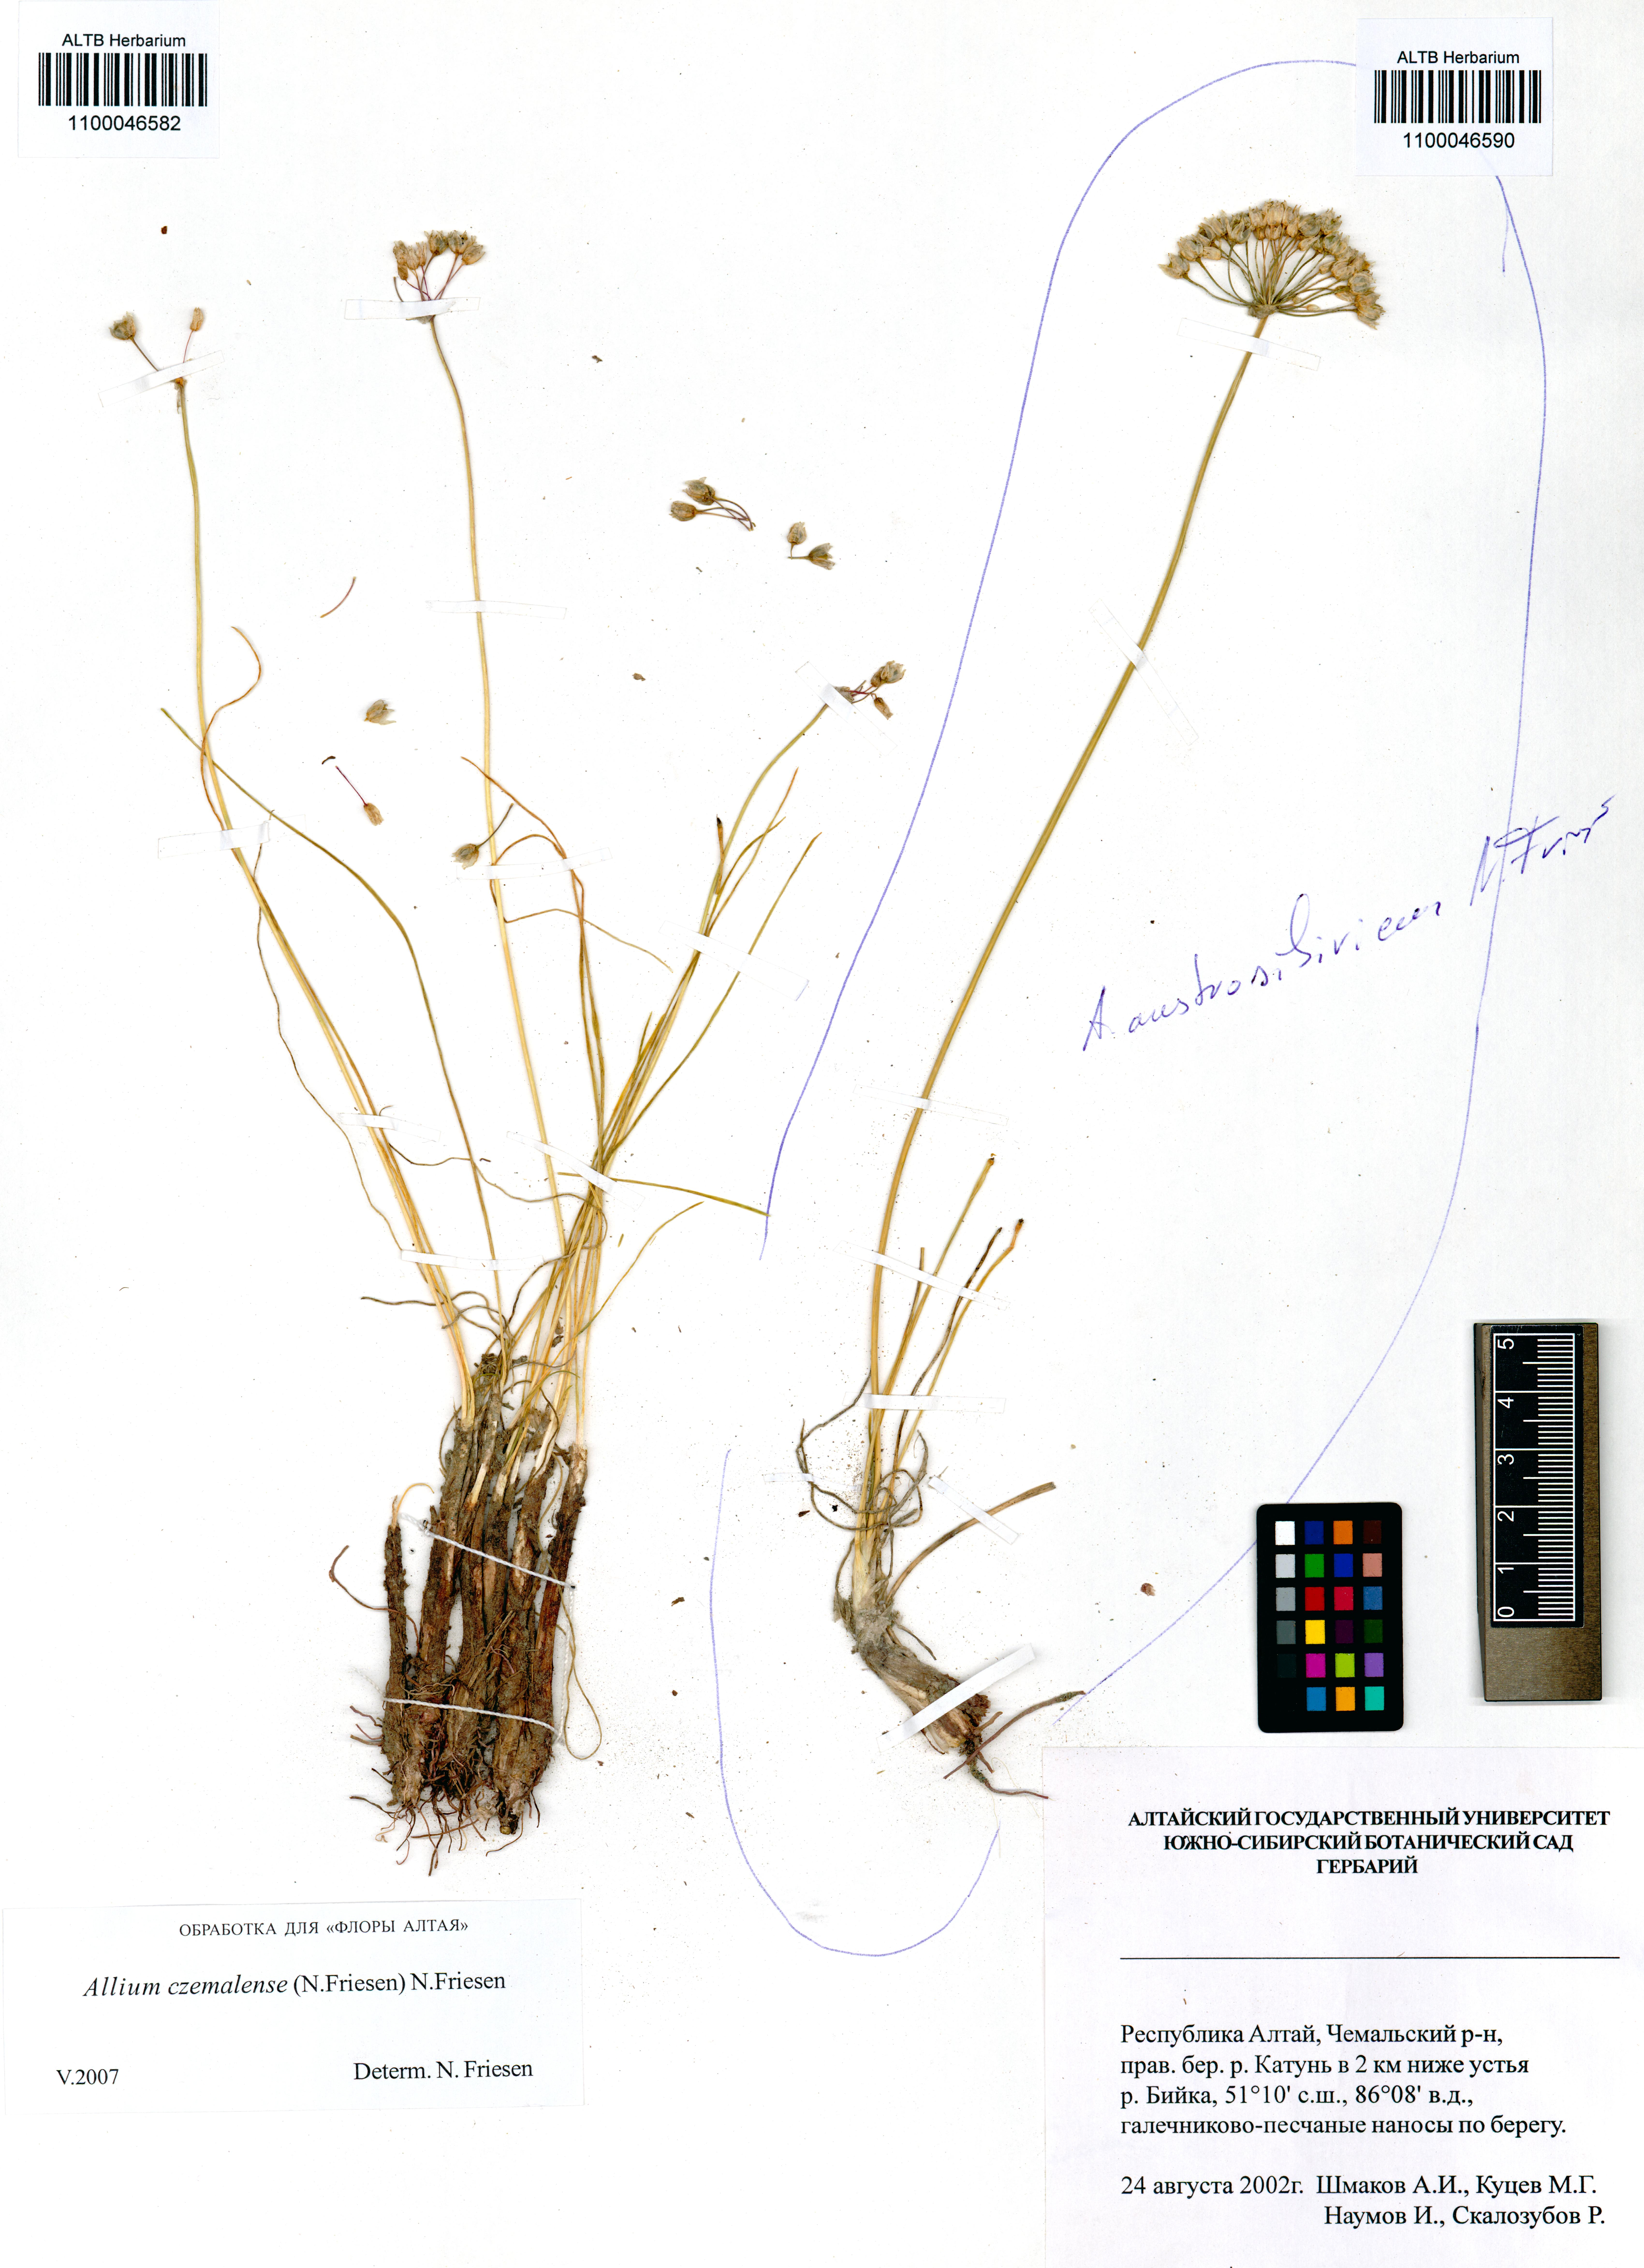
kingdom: Plantae
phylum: Tracheophyta
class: Liliopsida
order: Asparagales
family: Amaryllidaceae
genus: Allium
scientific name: Allium austrosibiricum
